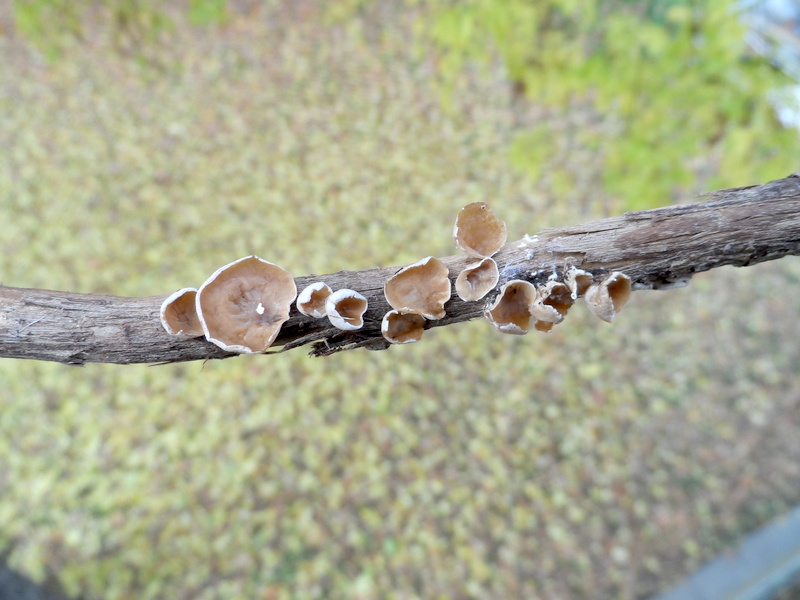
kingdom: Plantae
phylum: Tracheophyta
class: Magnoliopsida
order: Dipsacales
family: Viburnaceae
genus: Sambucus
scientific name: Sambucus nigra
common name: Elder
